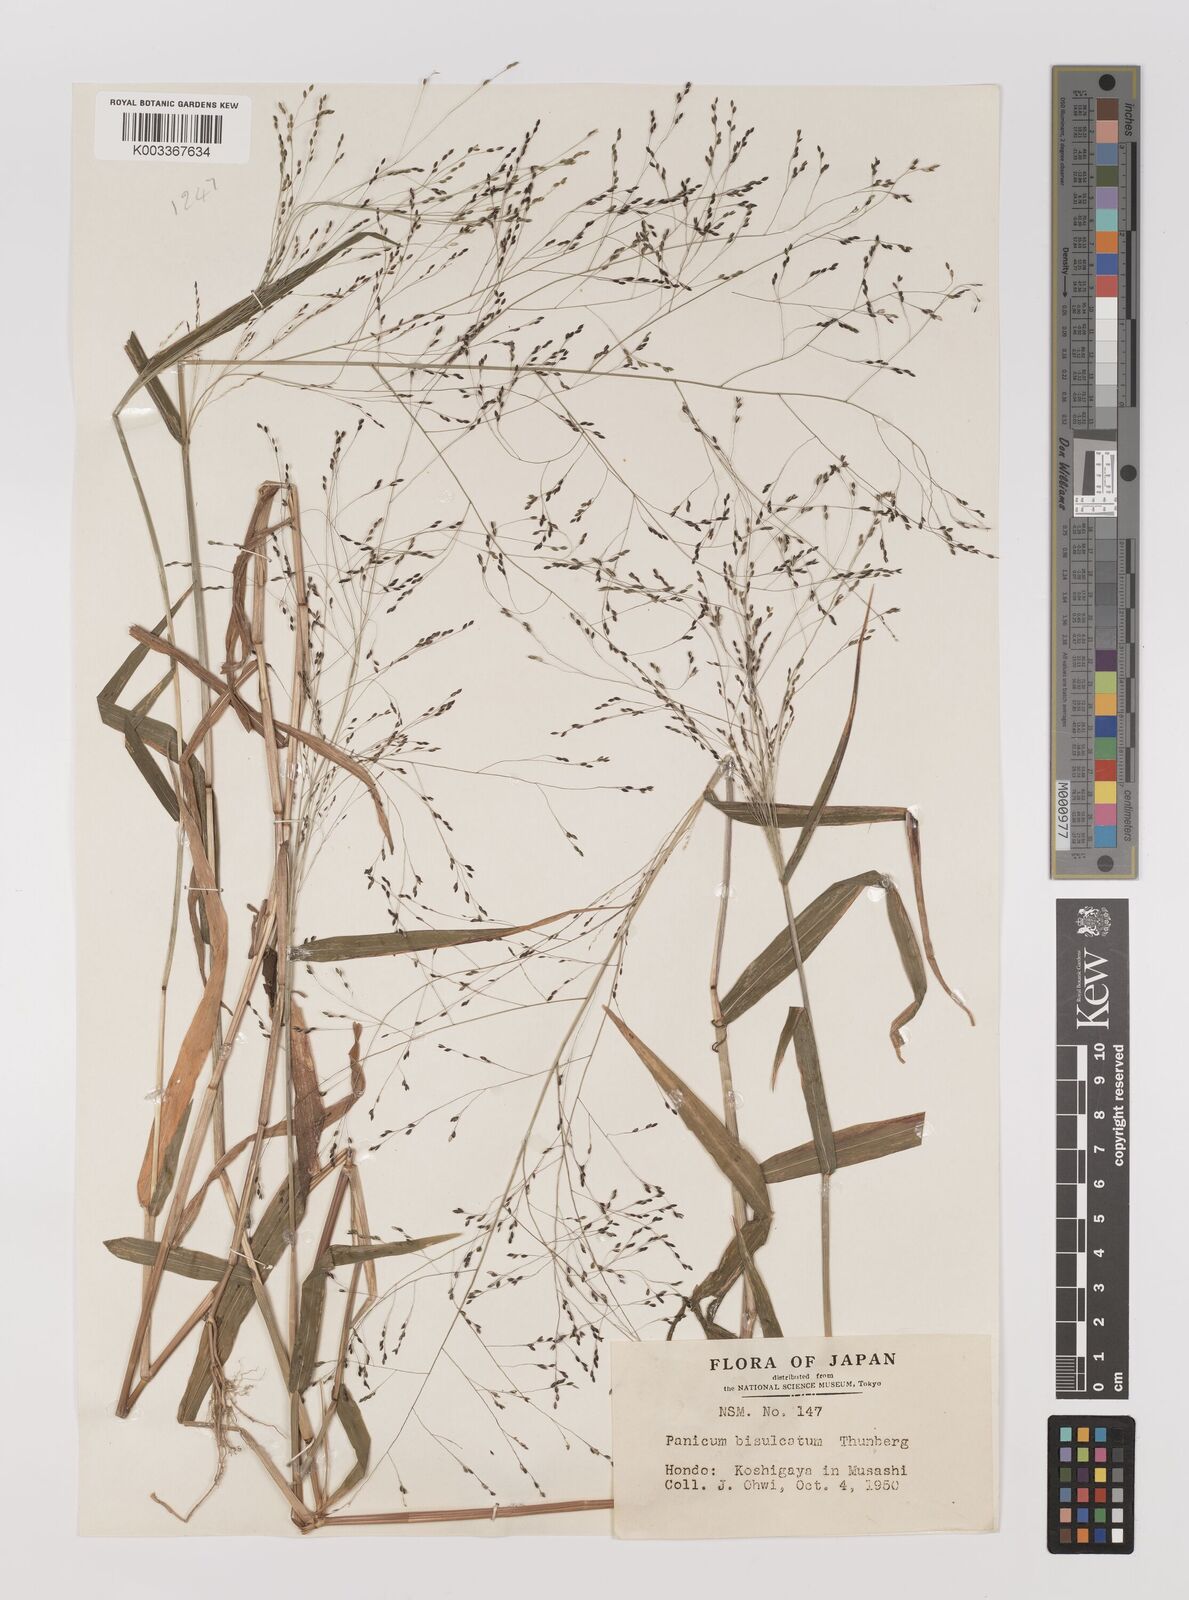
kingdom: Plantae
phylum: Tracheophyta
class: Liliopsida
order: Poales
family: Poaceae
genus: Panicum
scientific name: Panicum bisulcatum
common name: Japanese panicgrass
